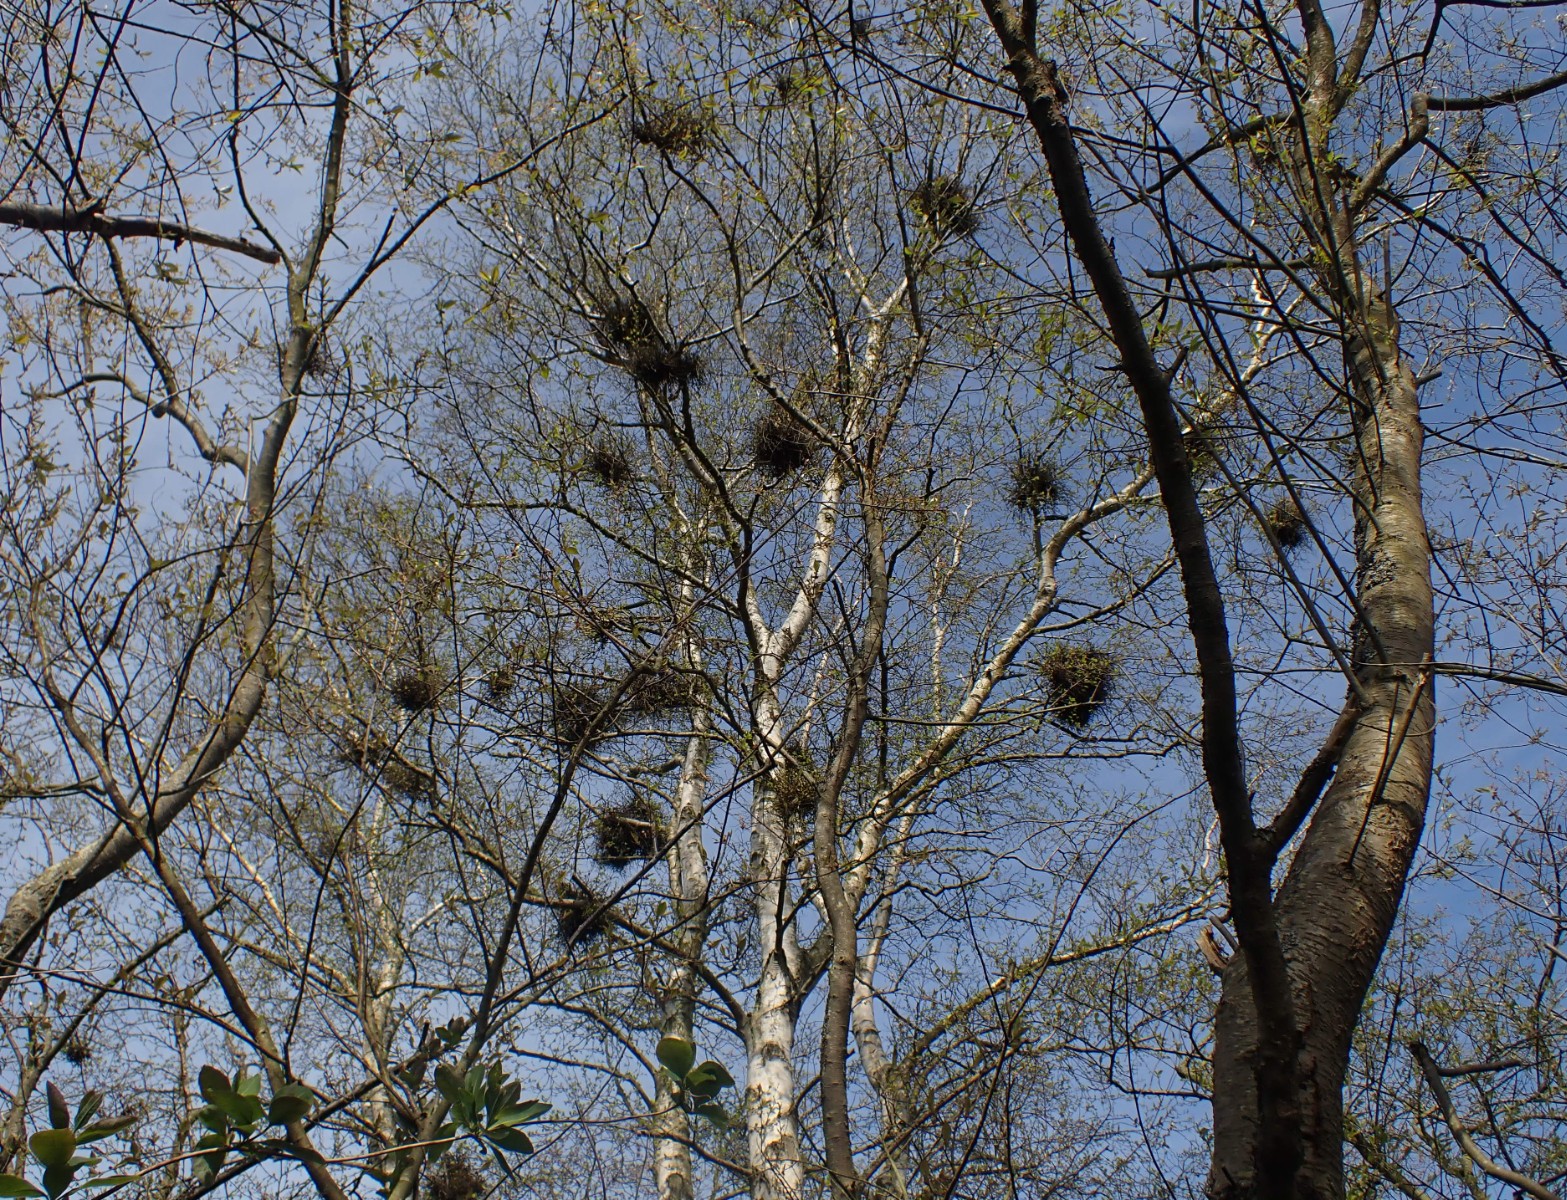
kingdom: Fungi
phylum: Ascomycota
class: Taphrinomycetes
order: Taphrinales
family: Taphrinaceae
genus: Taphrina
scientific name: Taphrina betulina
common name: hekse-sækdug
